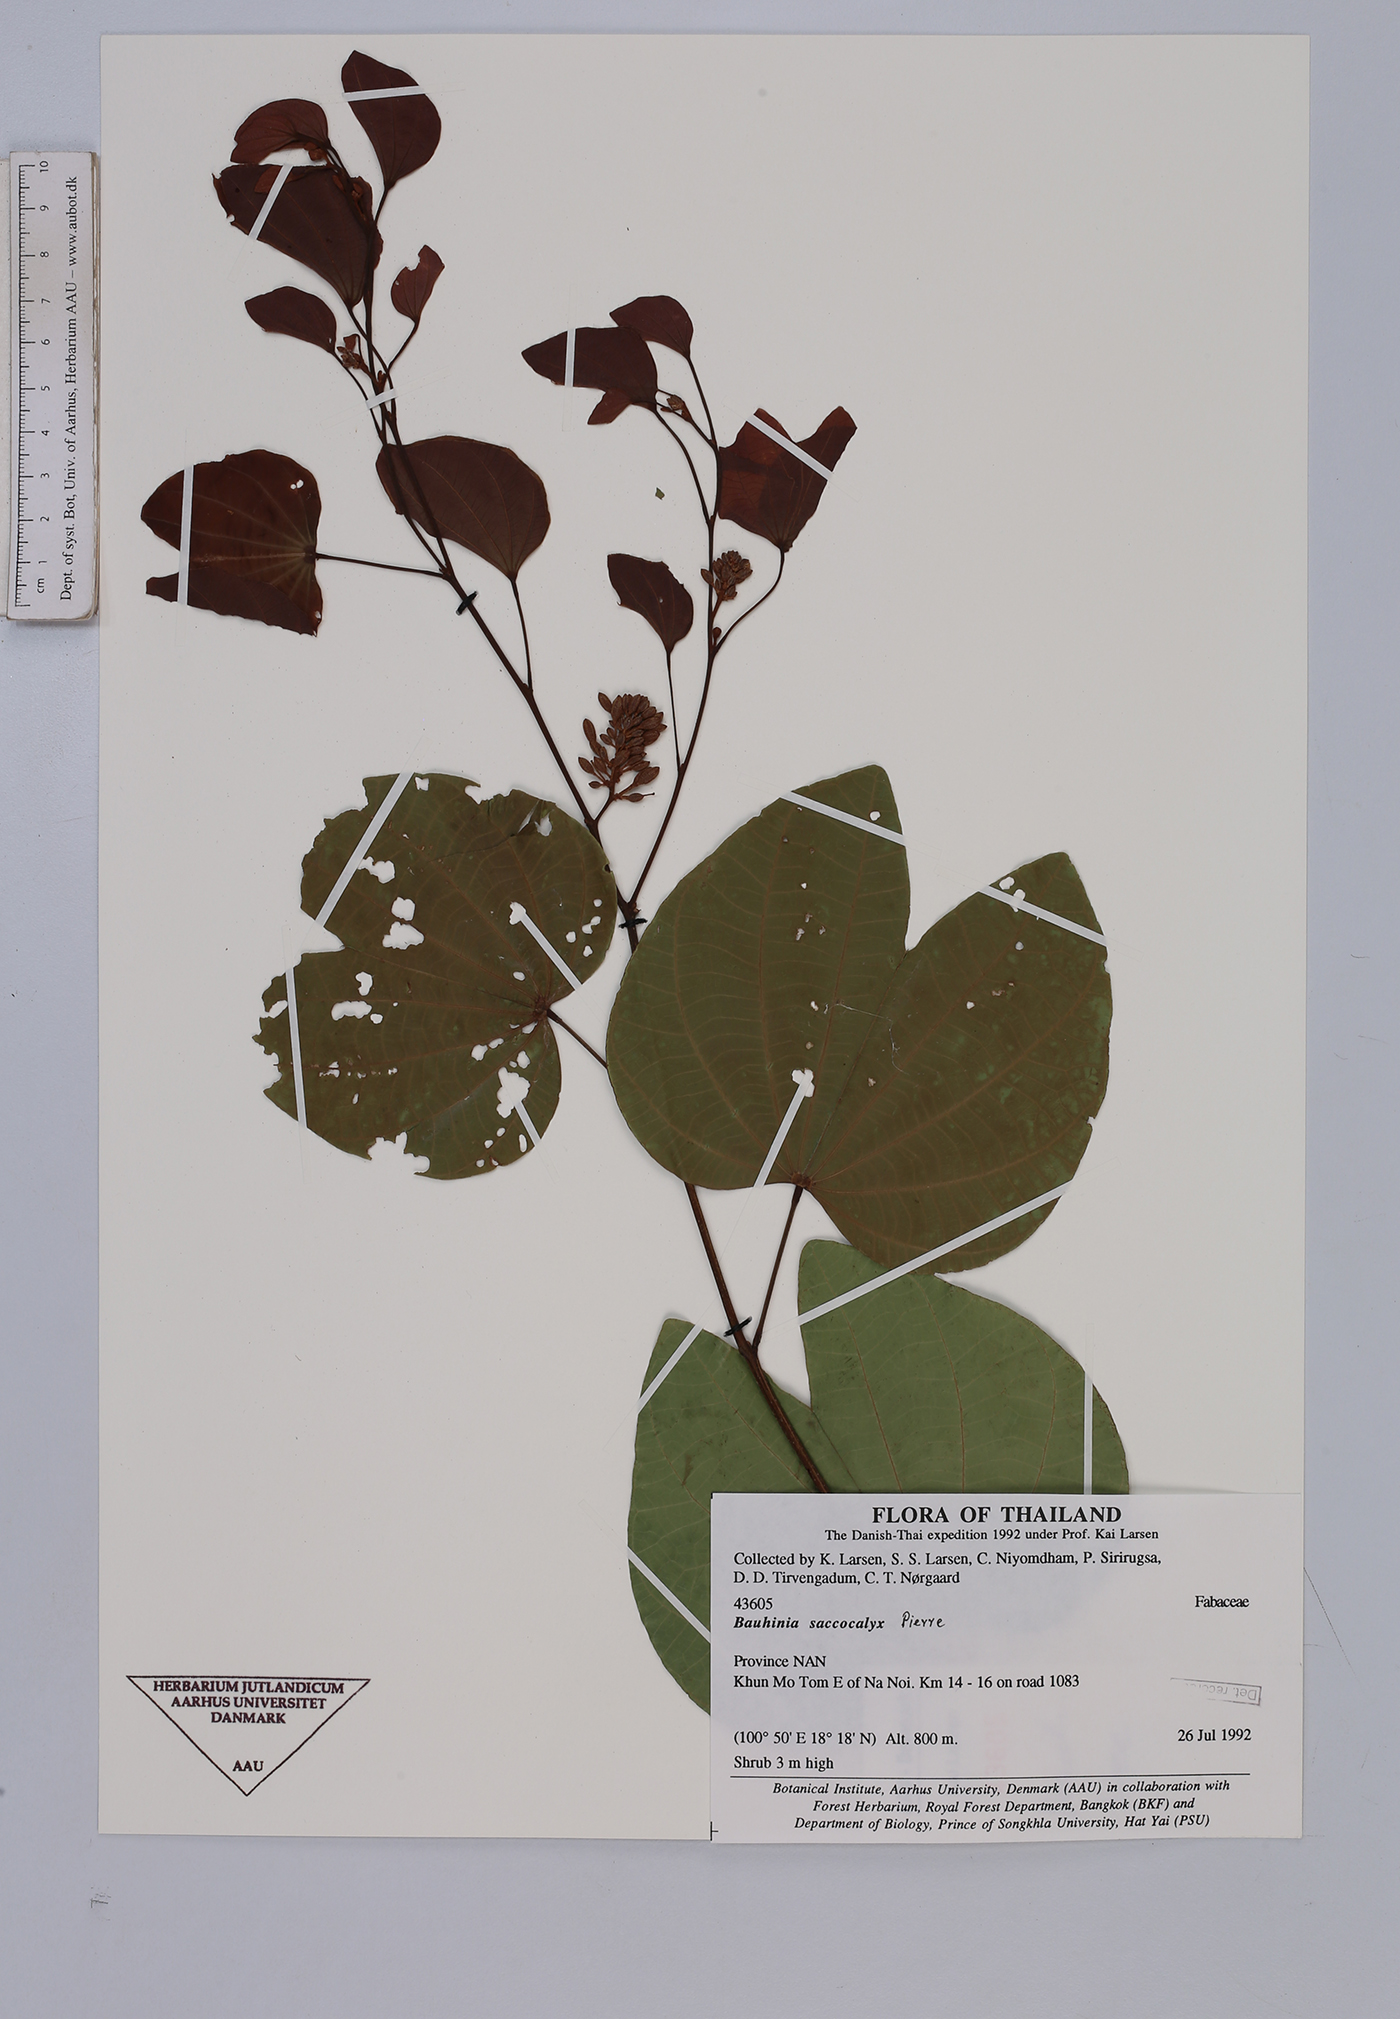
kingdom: Plantae
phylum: Tracheophyta
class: Magnoliopsida
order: Fabales
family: Fabaceae
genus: Bauhinia
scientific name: Bauhinia saccocalyx
